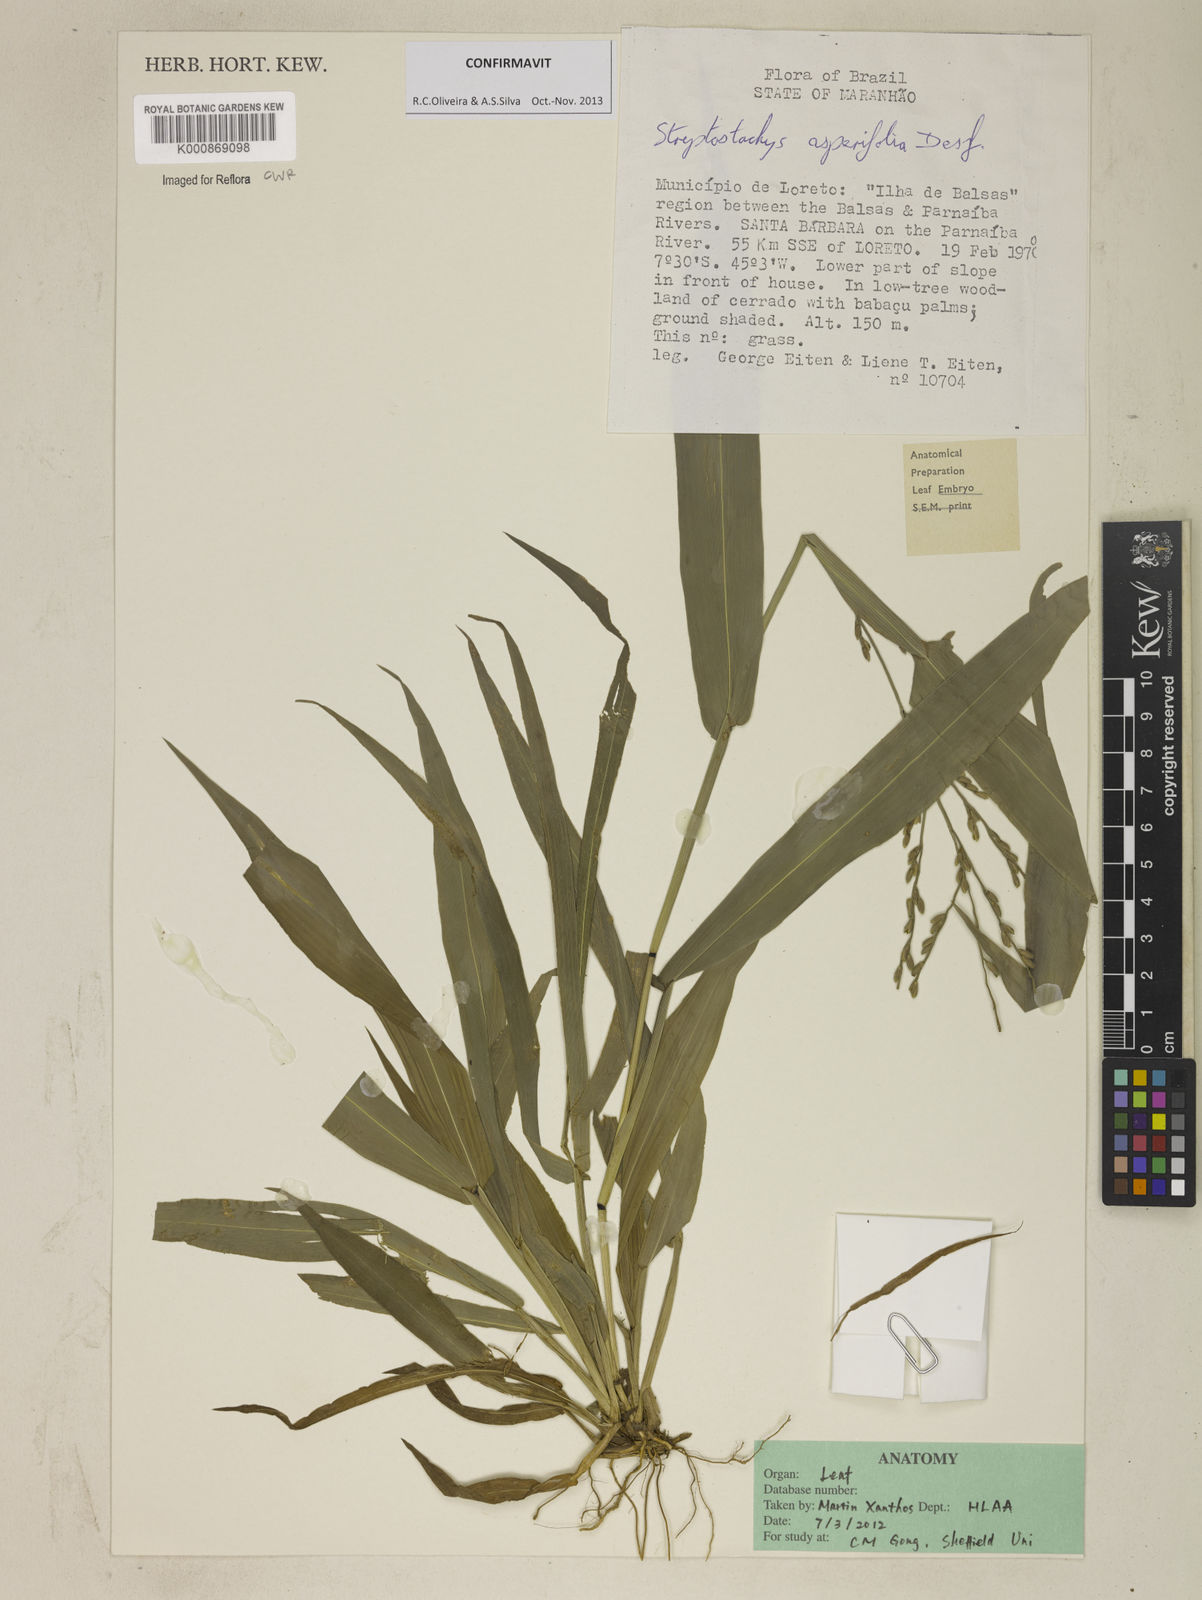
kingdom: Plantae
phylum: Tracheophyta
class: Liliopsida
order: Poales
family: Poaceae
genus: Streptostachys
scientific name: Streptostachys asperifolia
